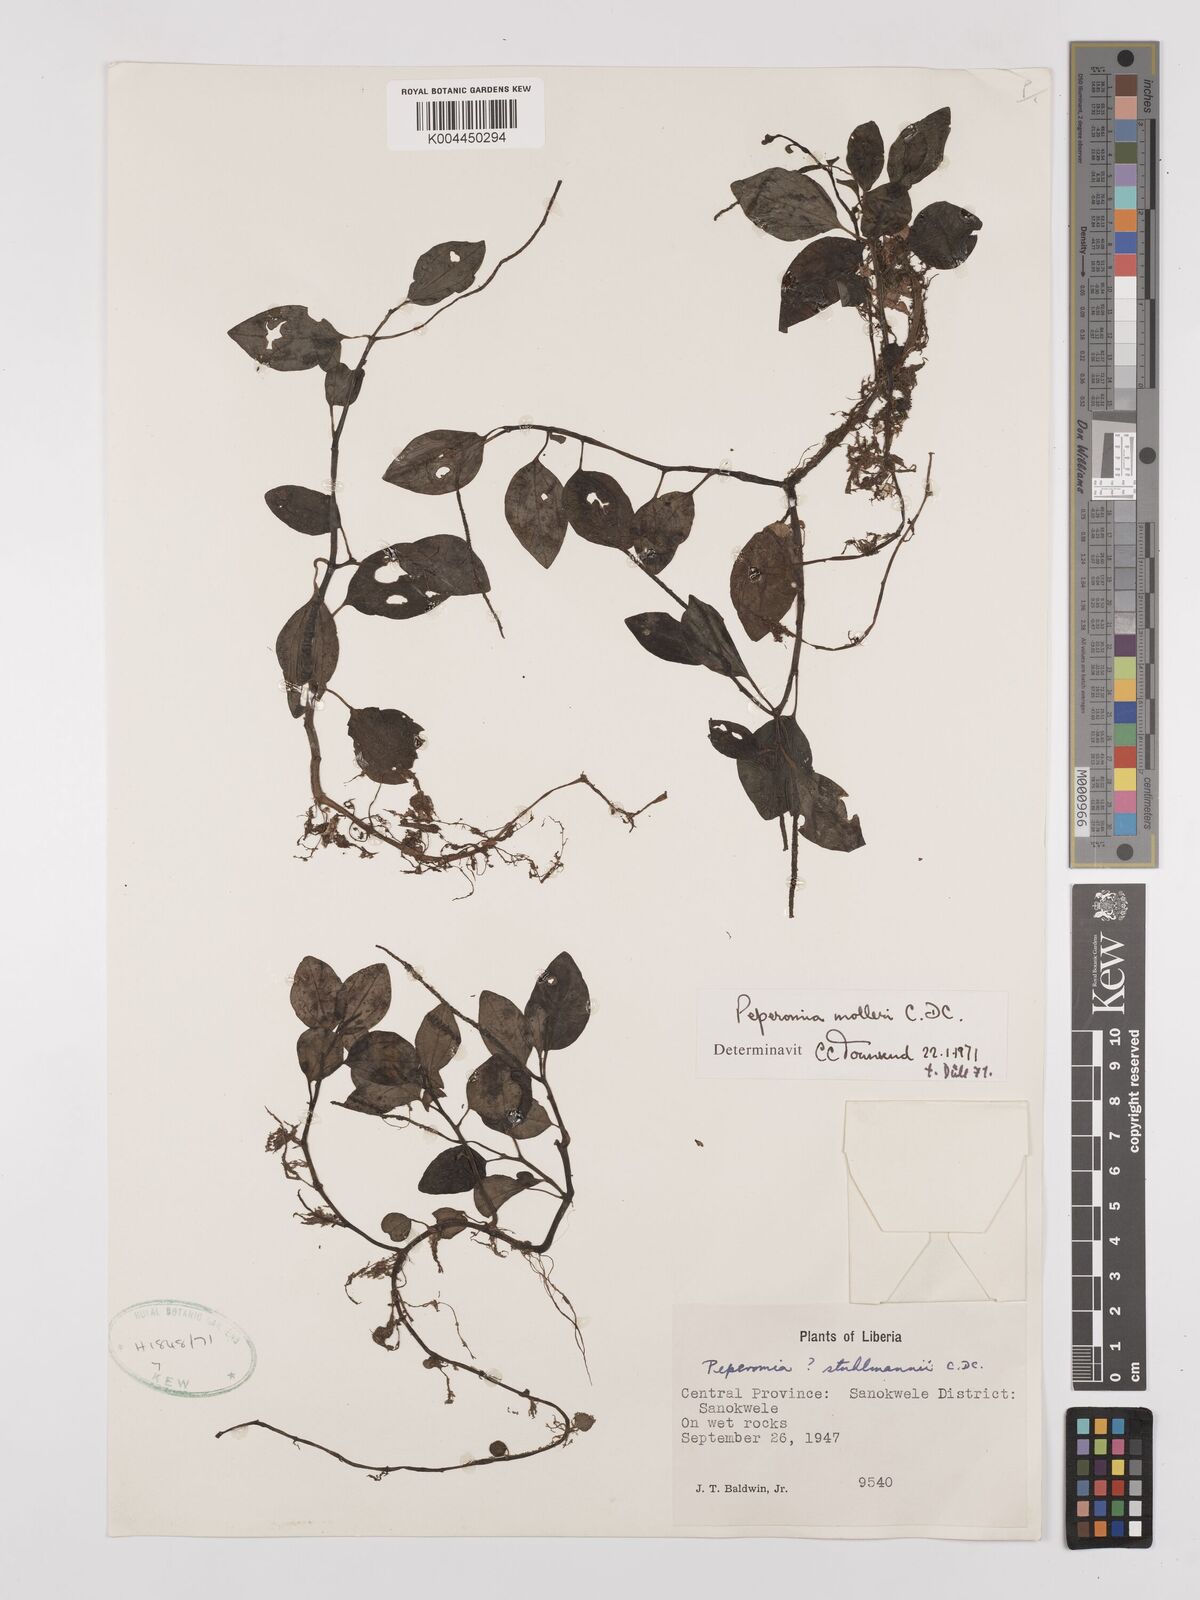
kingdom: Plantae
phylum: Tracheophyta
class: Magnoliopsida
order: Piperales
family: Piperaceae
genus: Peperomia
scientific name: Peperomia molleri
